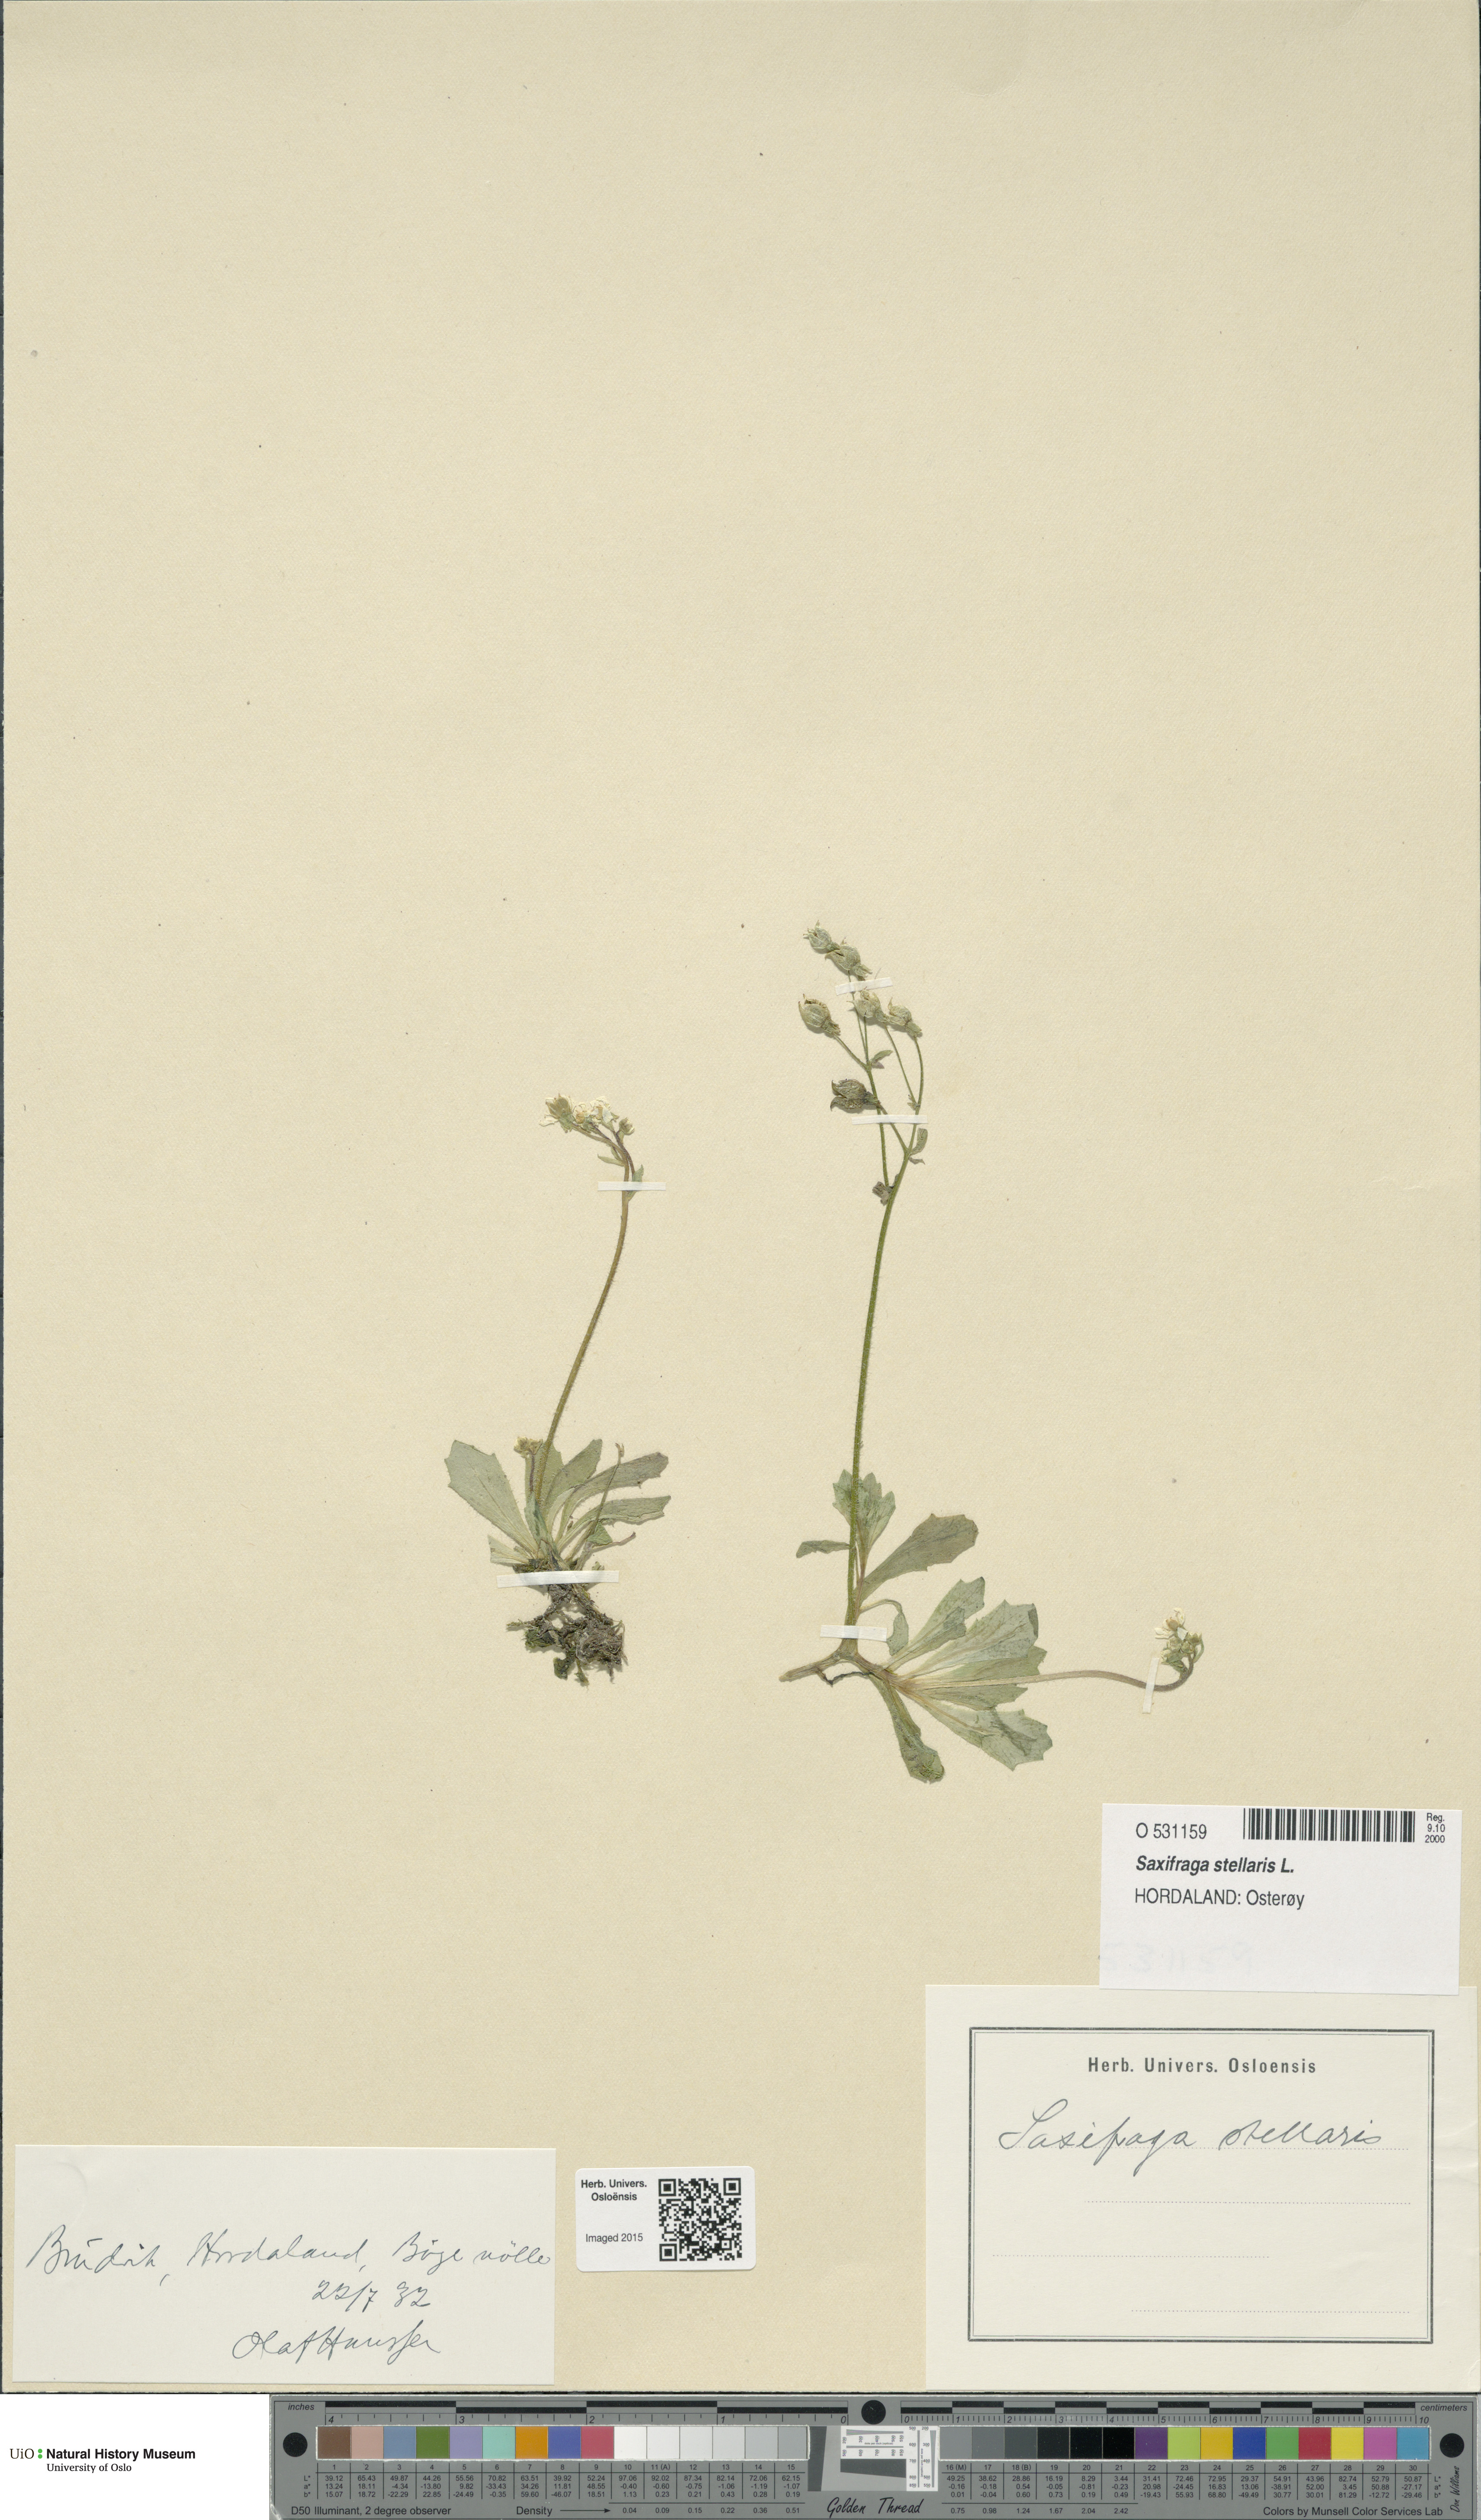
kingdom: Plantae
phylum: Tracheophyta
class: Magnoliopsida
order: Saxifragales
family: Saxifragaceae
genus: Micranthes
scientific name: Micranthes stellaris
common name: Starry saxifrage
